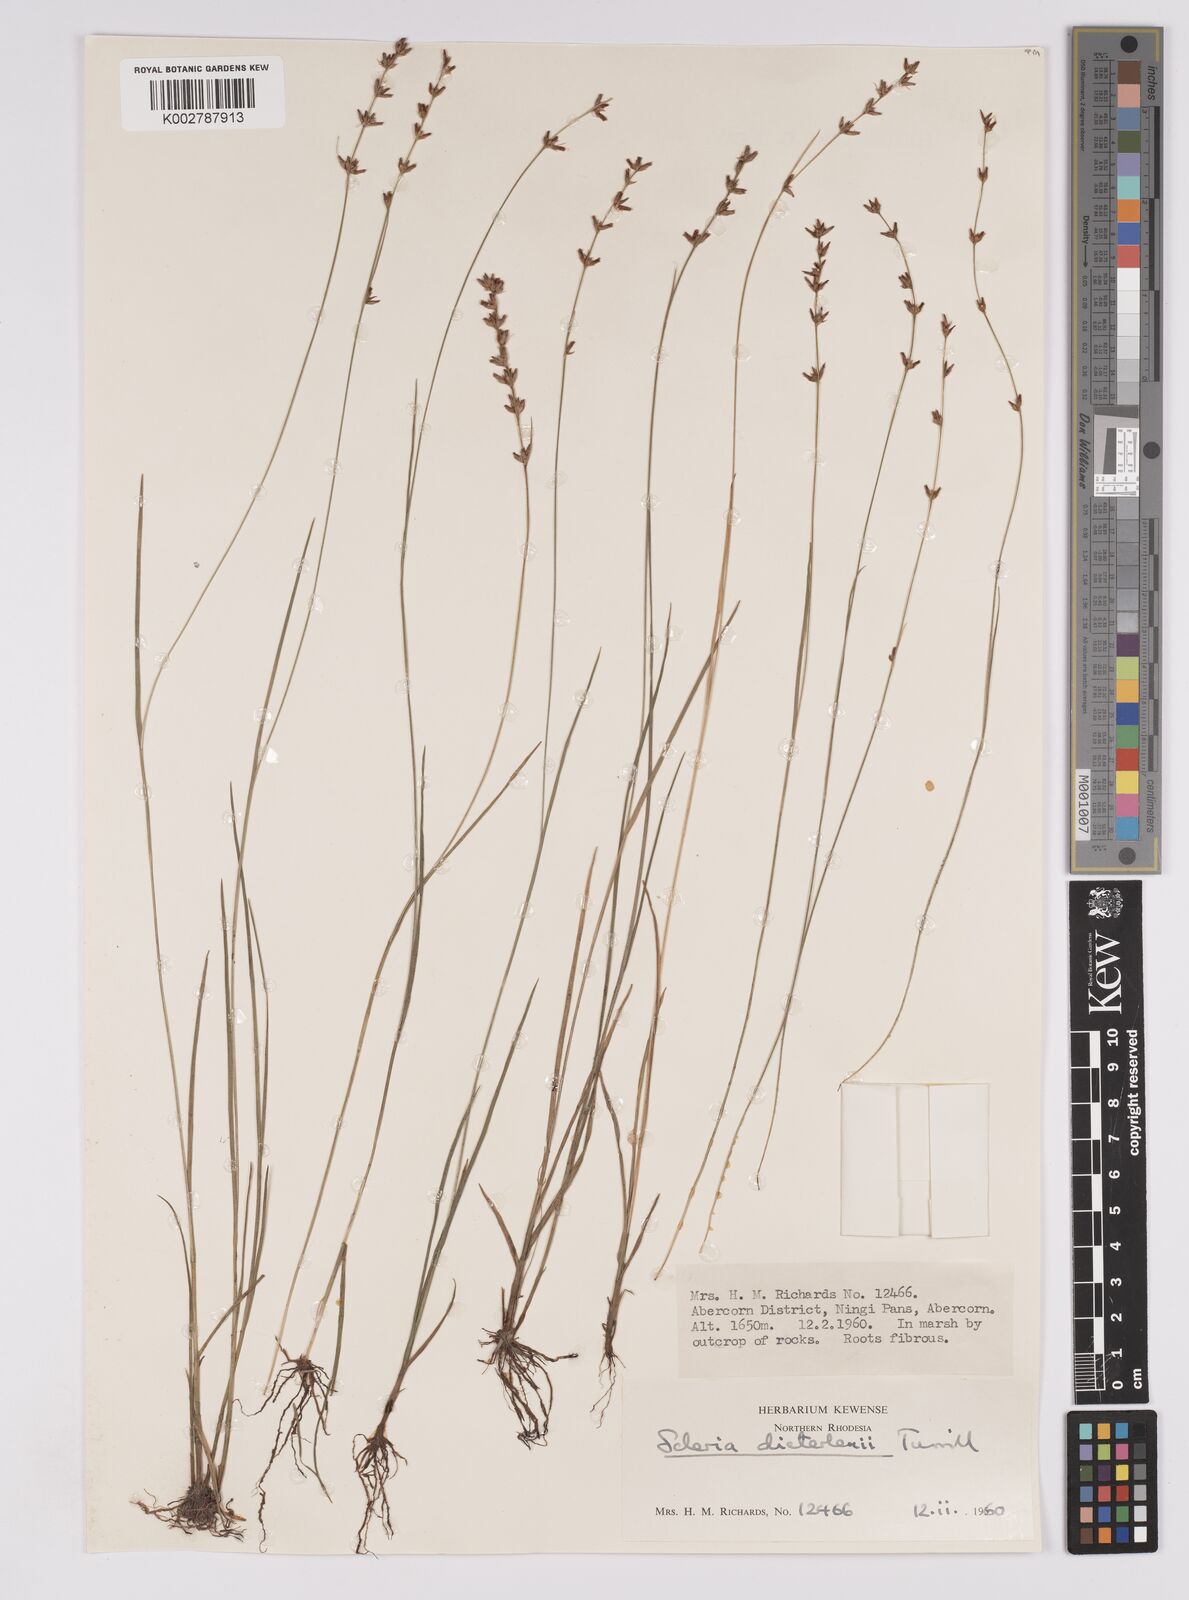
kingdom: Plantae
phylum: Tracheophyta
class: Liliopsida
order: Poales
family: Cyperaceae
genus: Scleria
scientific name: Scleria flexuosa
